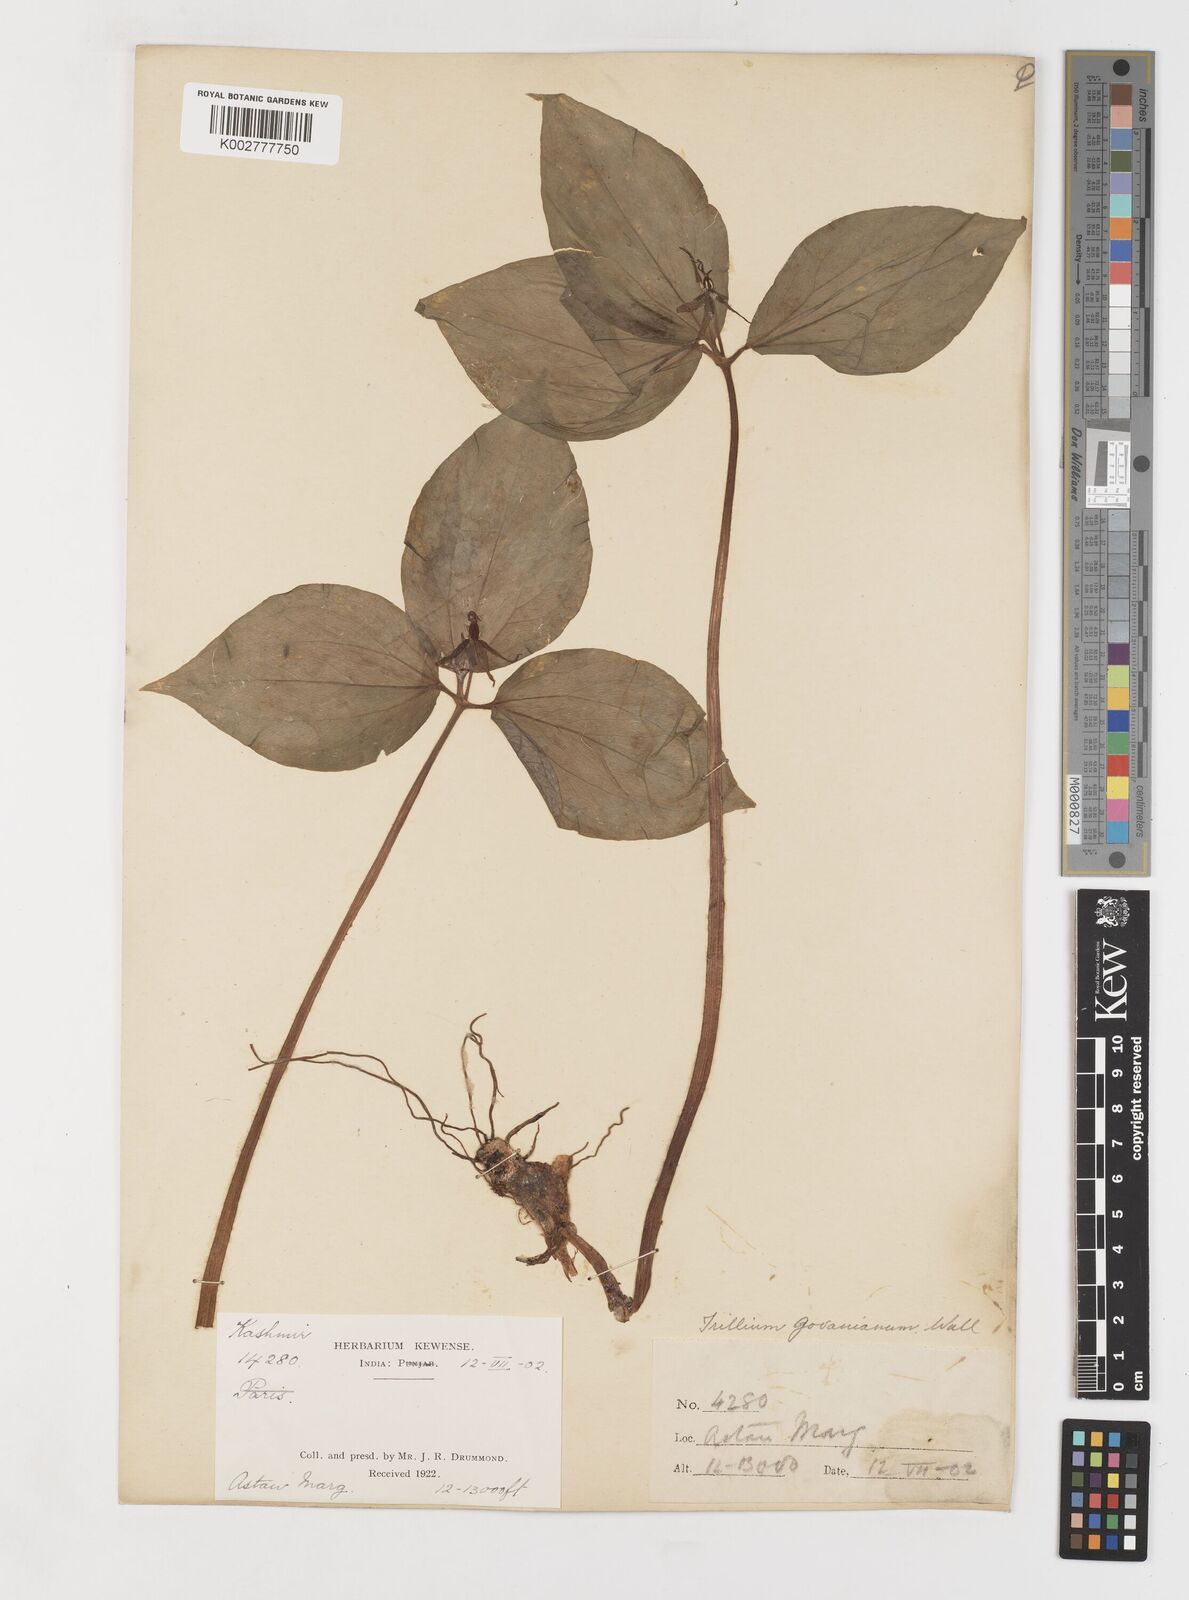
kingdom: Plantae
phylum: Tracheophyta
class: Liliopsida
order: Liliales
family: Melanthiaceae
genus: Trillium
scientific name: Trillium govanianum
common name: Himalayan trillium
